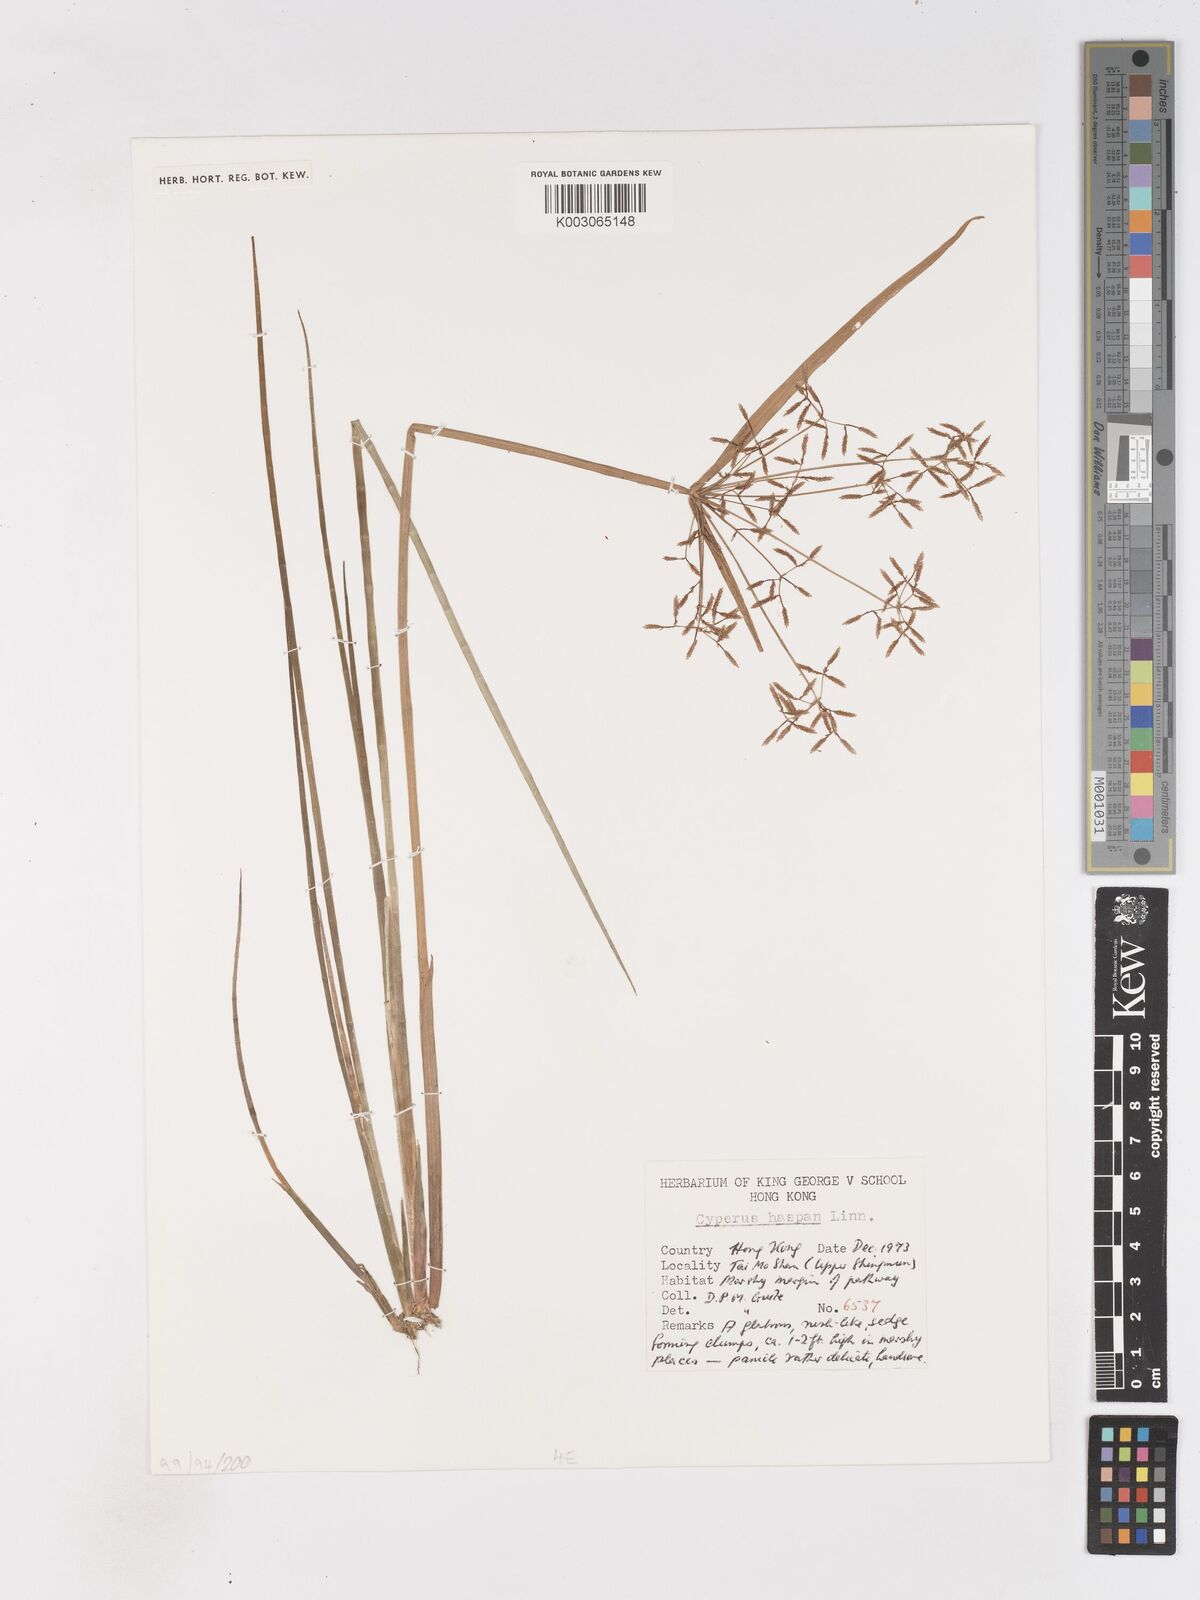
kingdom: Plantae
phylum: Tracheophyta
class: Liliopsida
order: Poales
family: Cyperaceae
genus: Cyperus
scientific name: Cyperus haspan
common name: Haspan flatsedge
